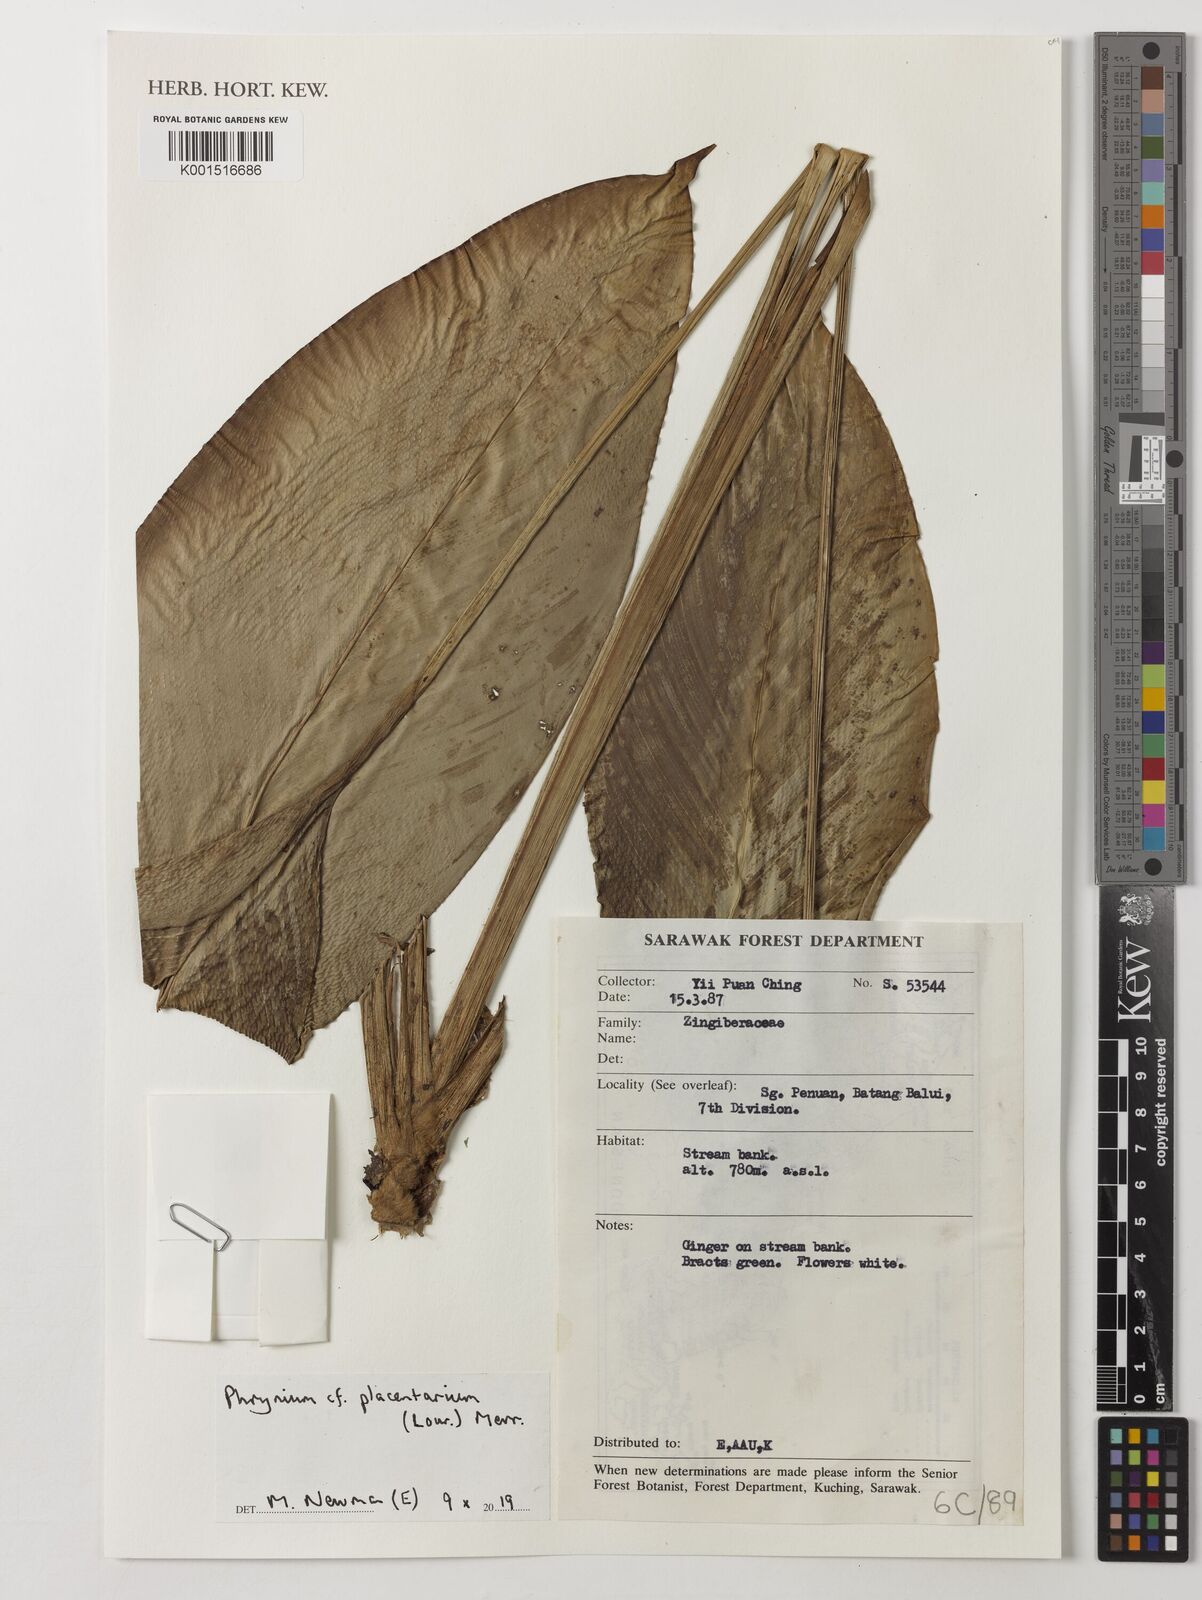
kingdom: Plantae
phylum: Tracheophyta
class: Liliopsida
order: Zingiberales
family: Marantaceae
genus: Stachyphrynium
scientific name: Stachyphrynium placentarium
